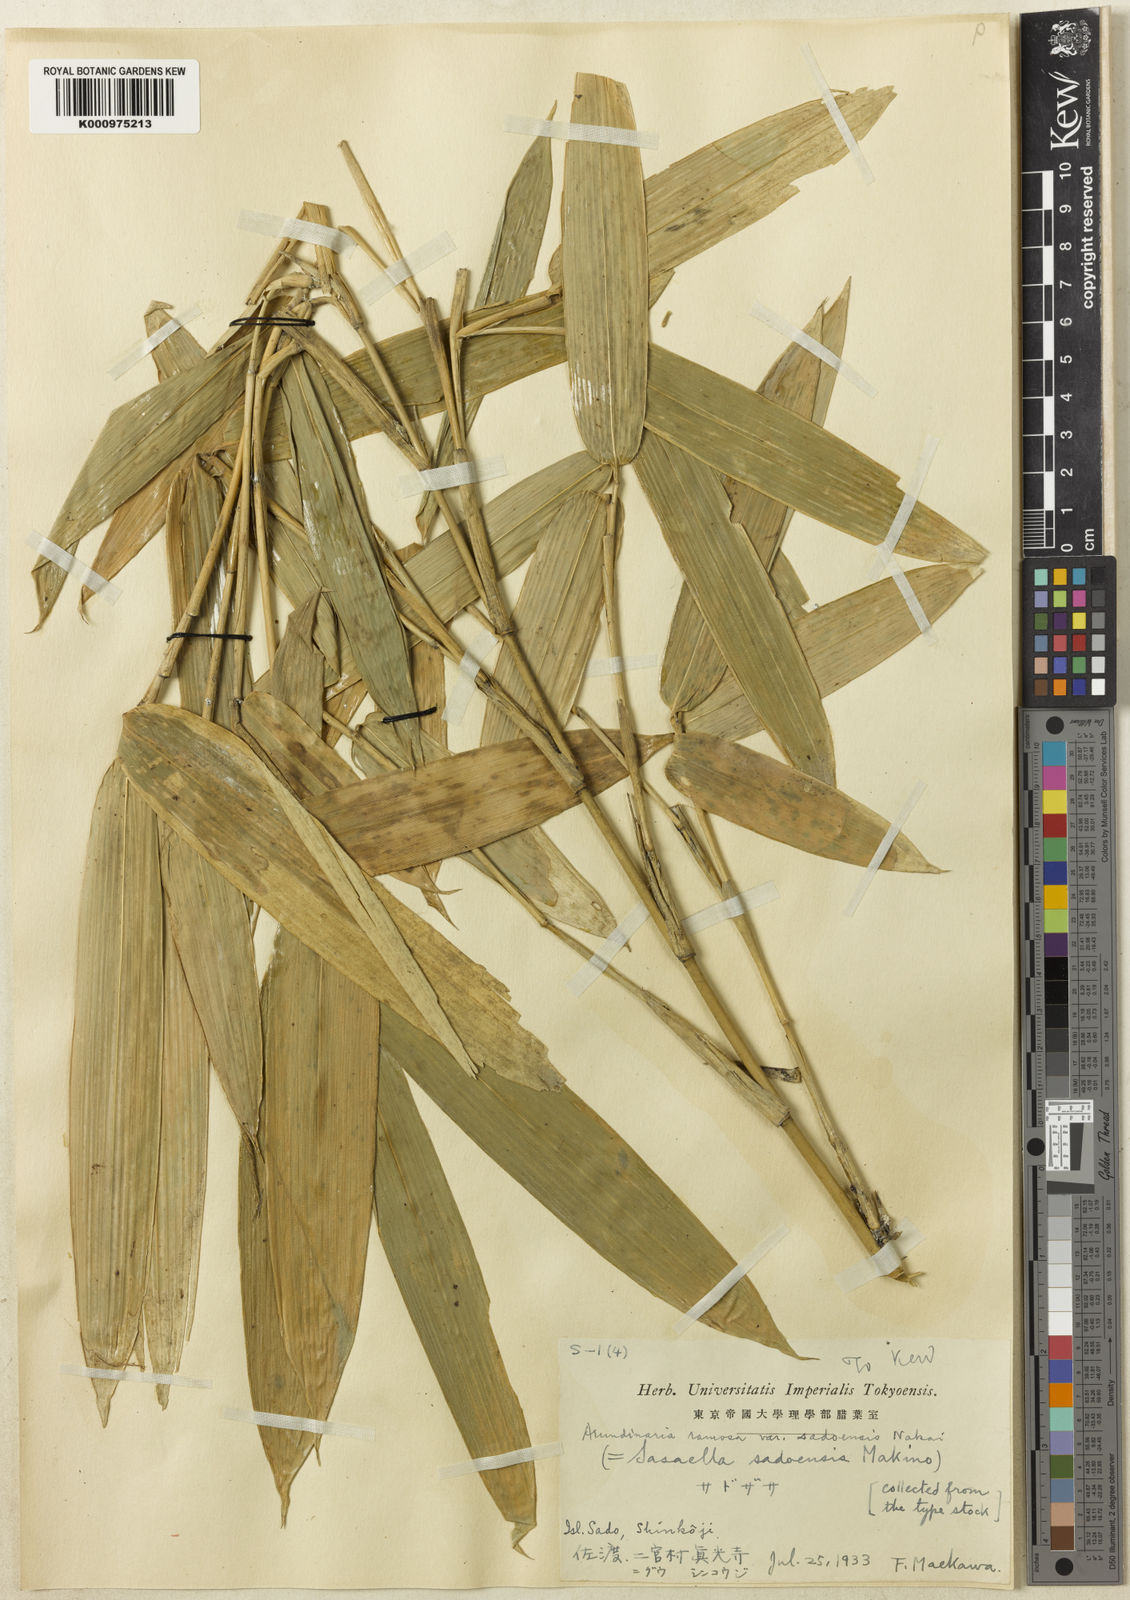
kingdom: Plantae
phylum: Tracheophyta
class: Liliopsida
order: Poales
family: Poaceae
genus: Sasaella
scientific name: Sasaella ramosa
